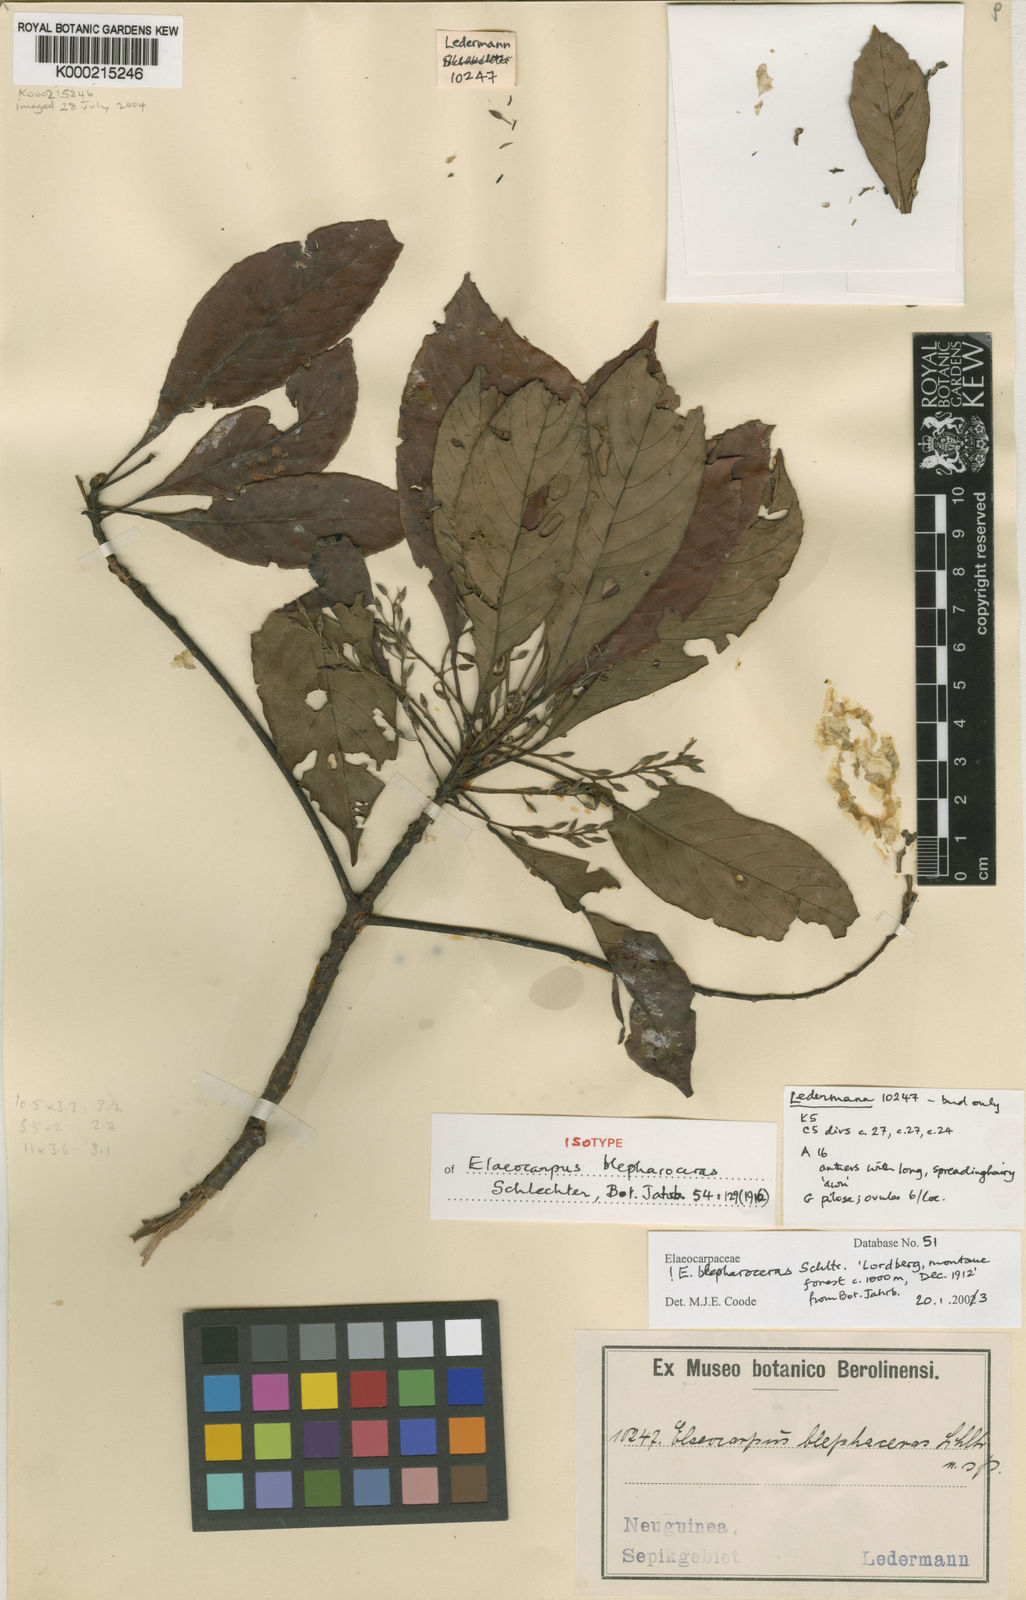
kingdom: Plantae
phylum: Tracheophyta
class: Magnoliopsida
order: Oxalidales
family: Elaeocarpaceae
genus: Elaeocarpus
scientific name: Elaeocarpus
